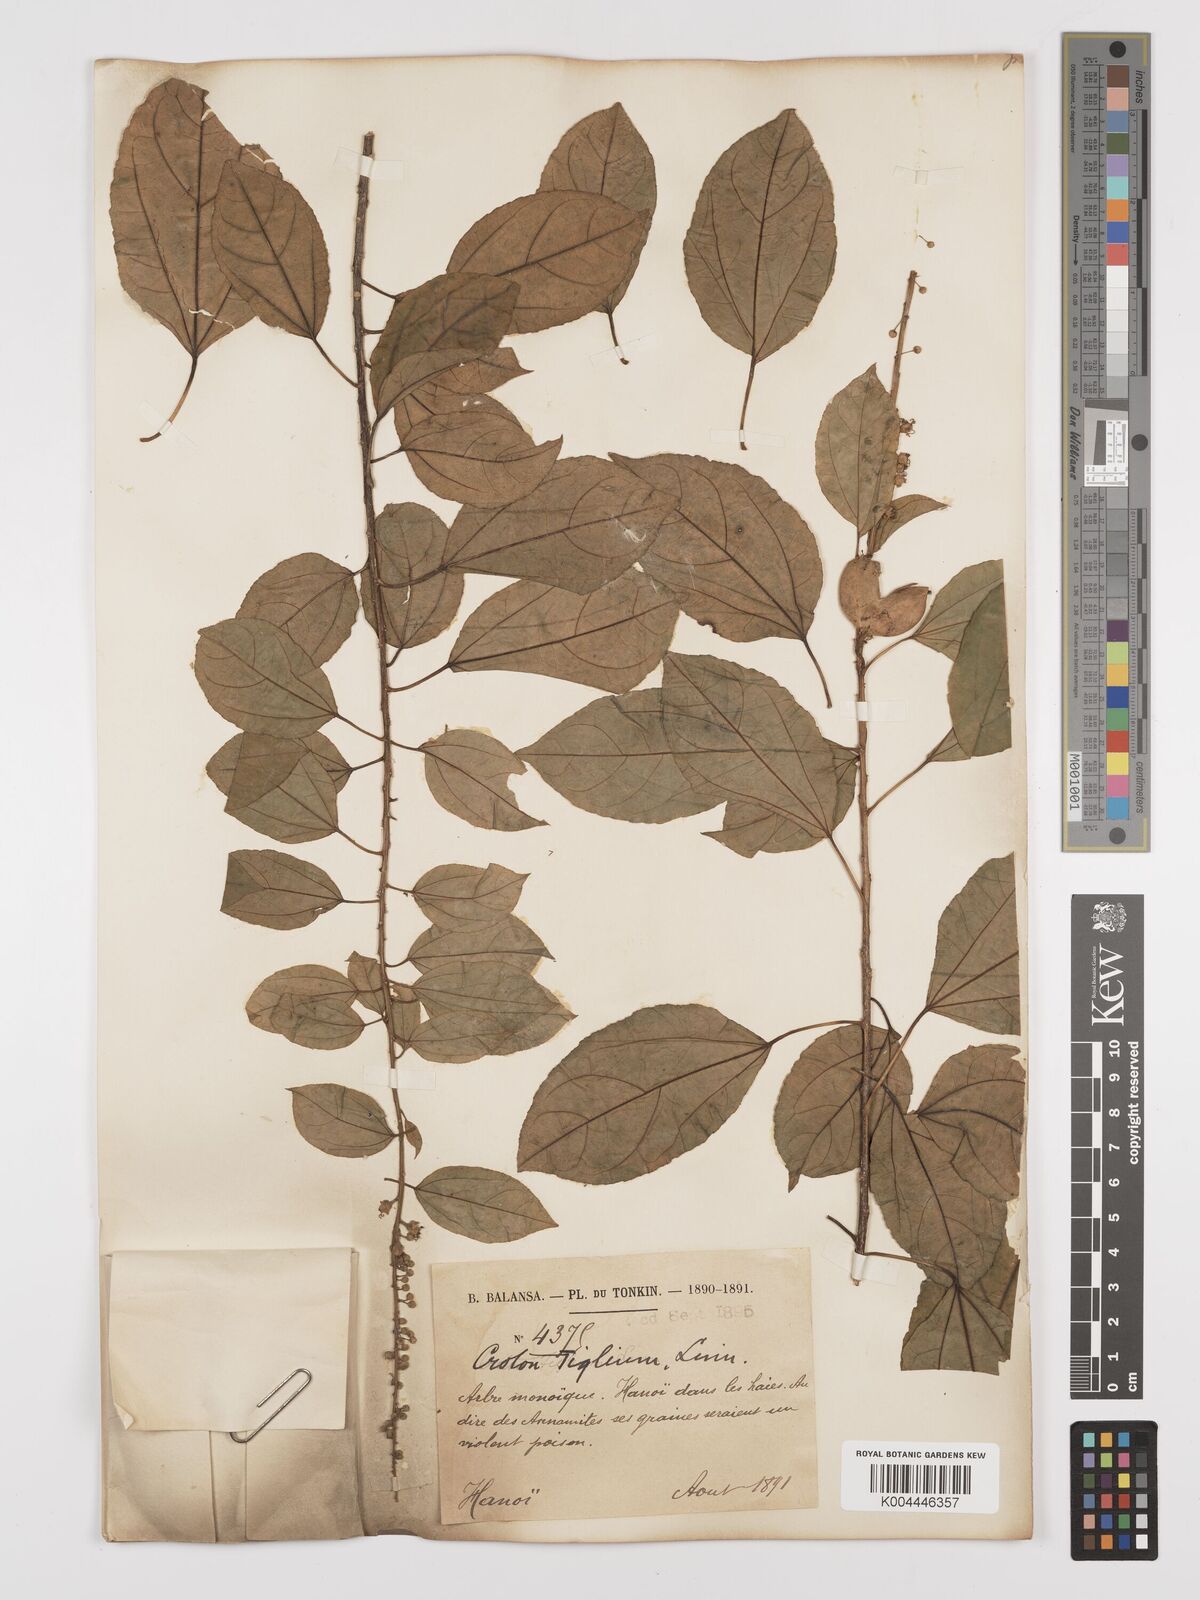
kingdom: Plantae
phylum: Tracheophyta
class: Magnoliopsida
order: Malpighiales
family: Euphorbiaceae
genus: Croton
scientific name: Croton tiglium
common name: Purging croton
